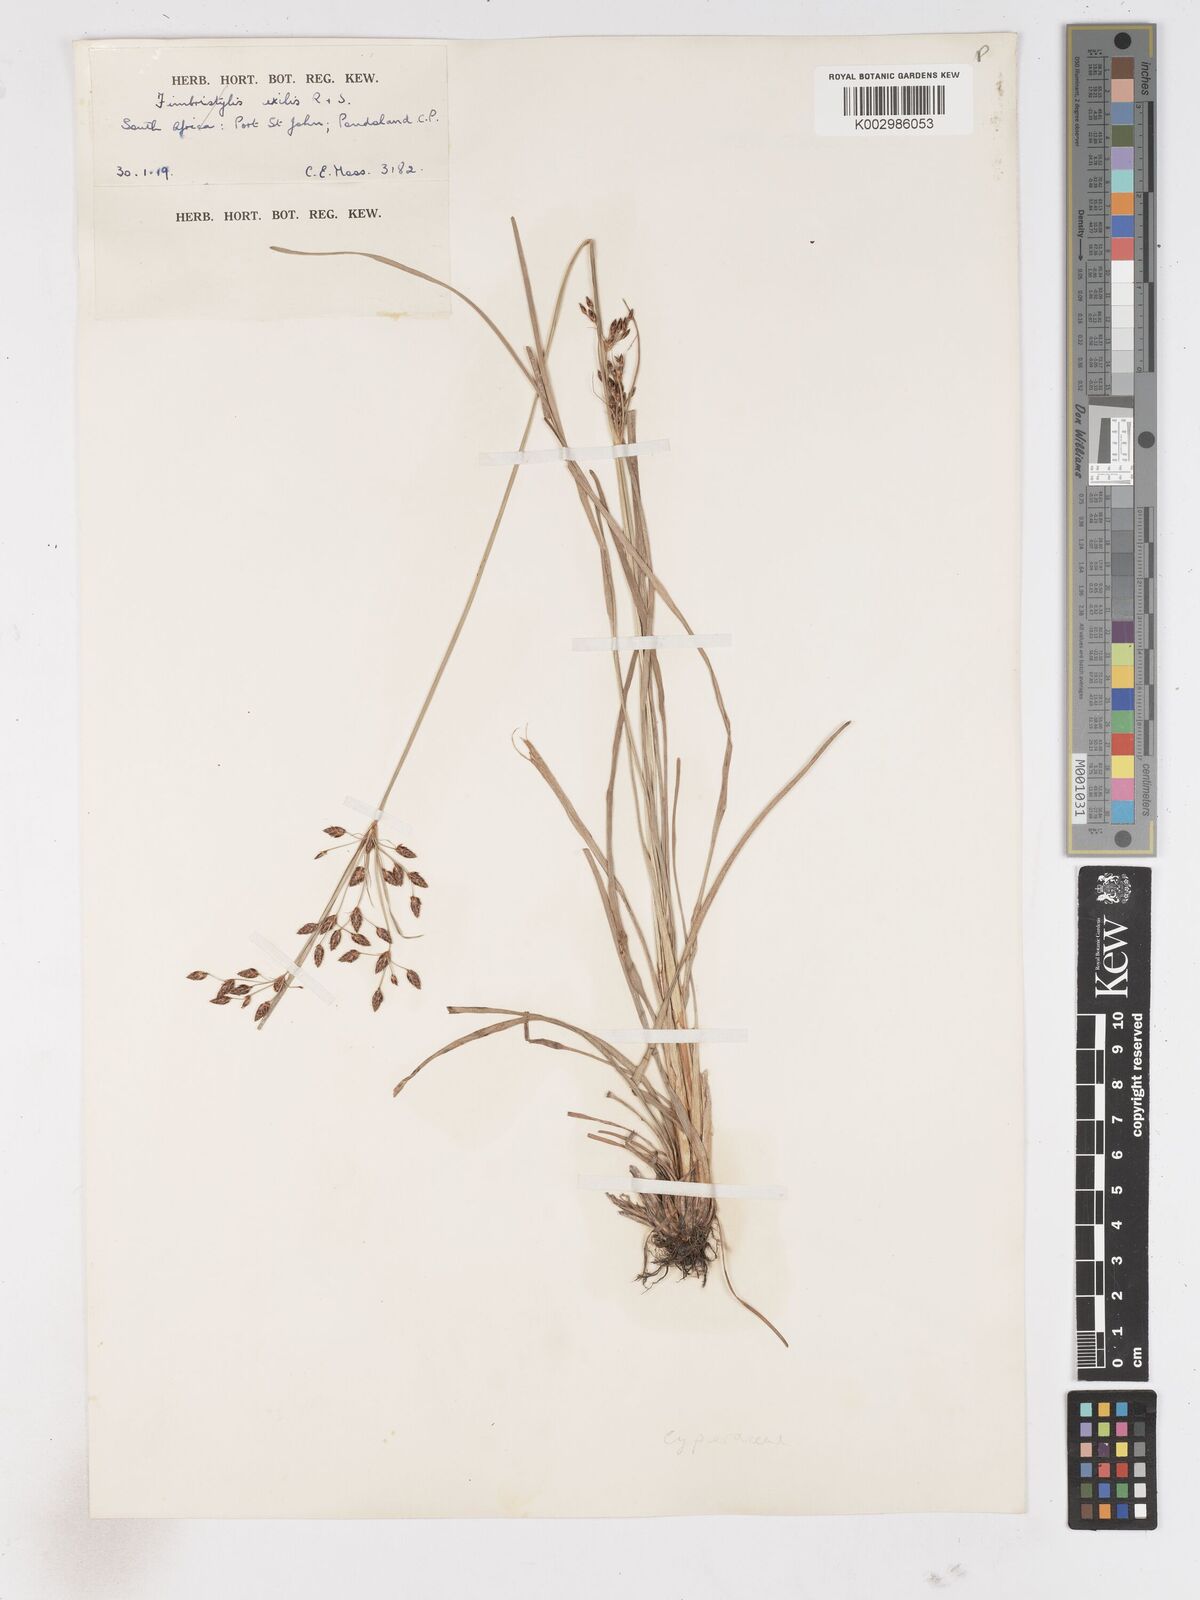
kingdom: Plantae
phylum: Tracheophyta
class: Liliopsida
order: Poales
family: Cyperaceae
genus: Fimbristylis
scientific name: Fimbristylis
